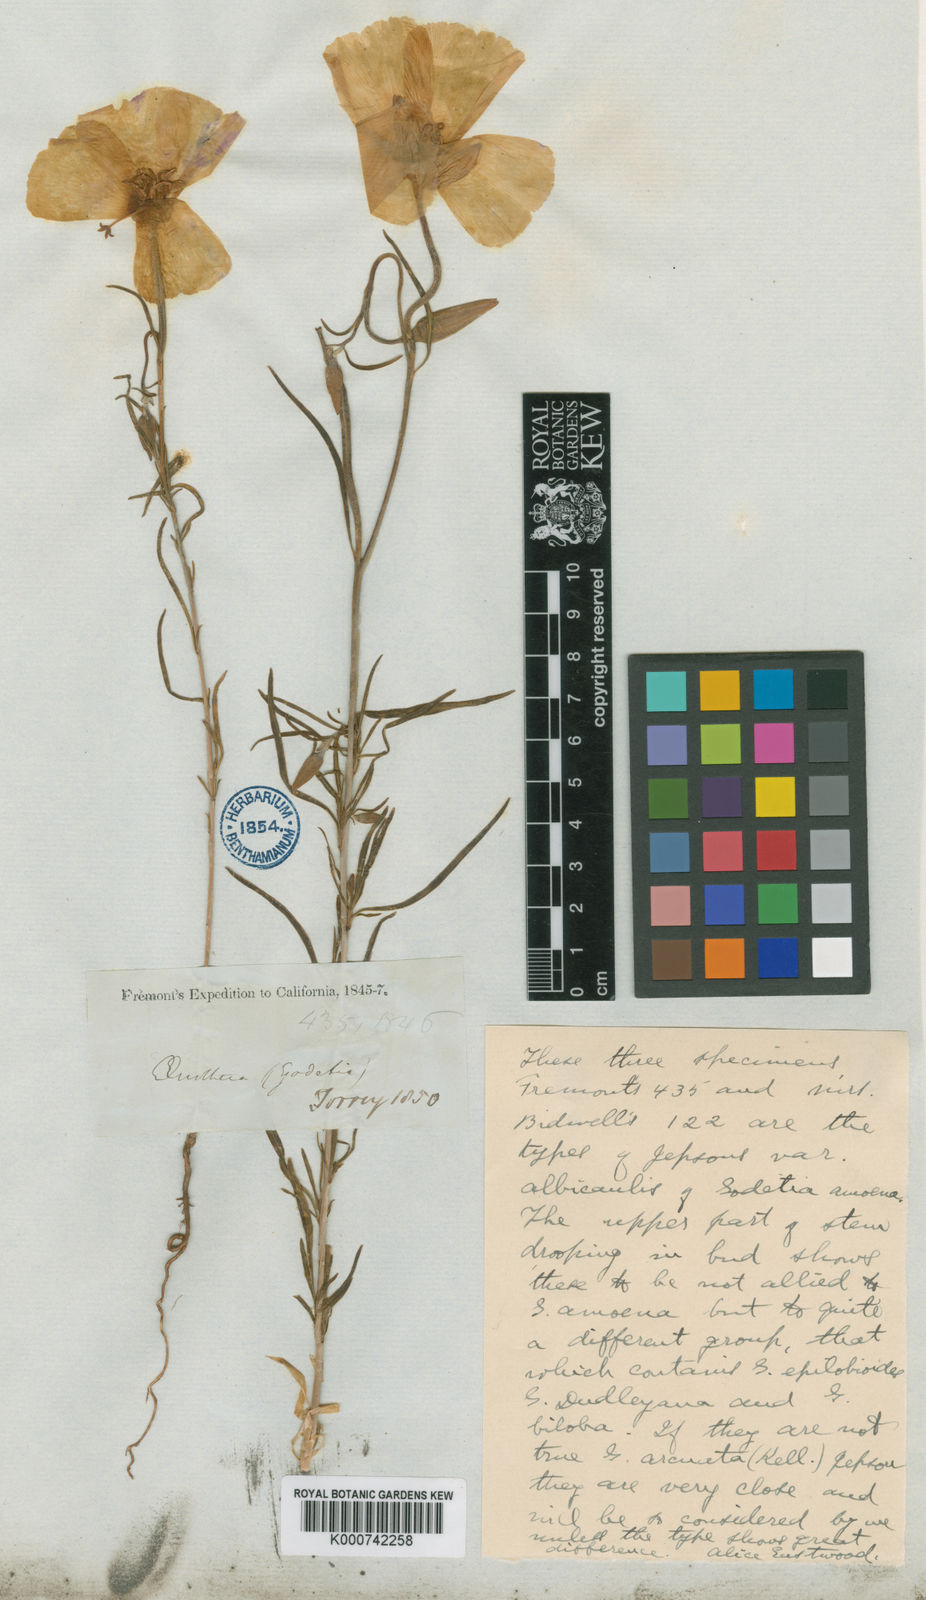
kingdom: Plantae
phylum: Tracheophyta
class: Magnoliopsida
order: Myrtales
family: Onagraceae
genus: Clarkia
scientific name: Clarkia arcuata
